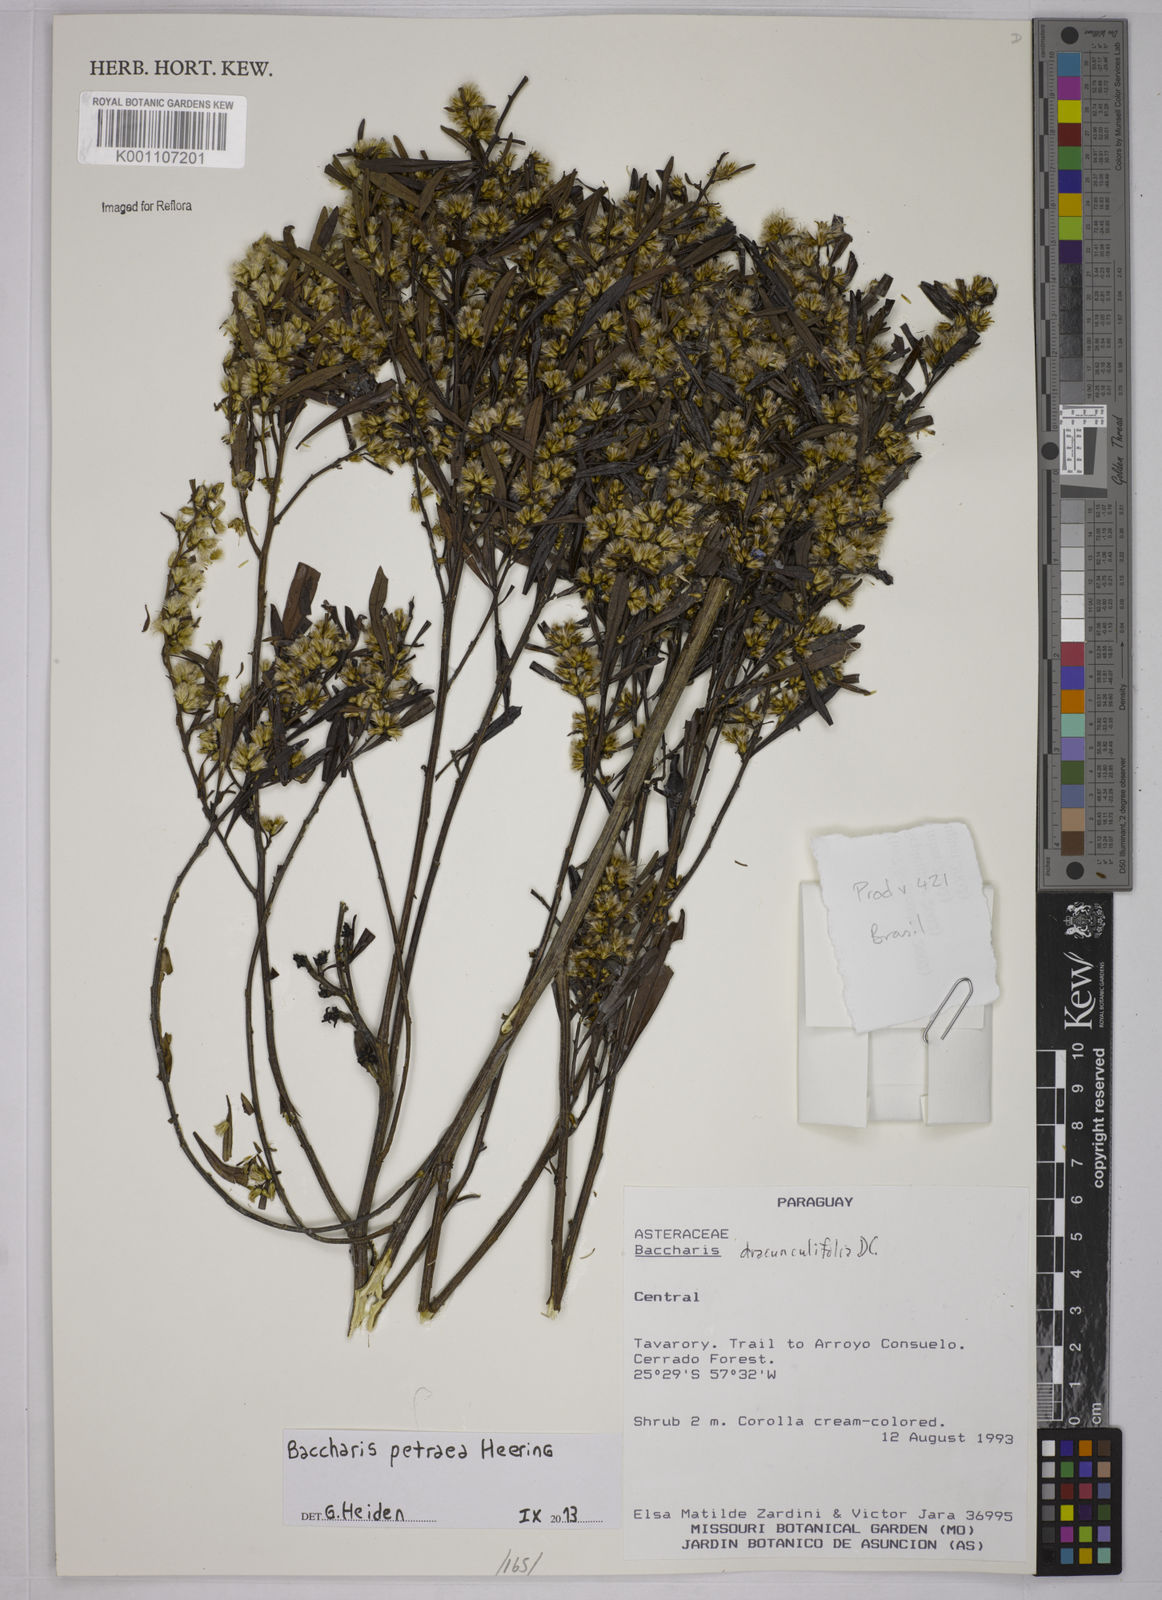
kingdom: Plantae
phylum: Tracheophyta
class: Magnoliopsida
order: Asterales
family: Asteraceae
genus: Baccharis
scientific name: Baccharis petraea
